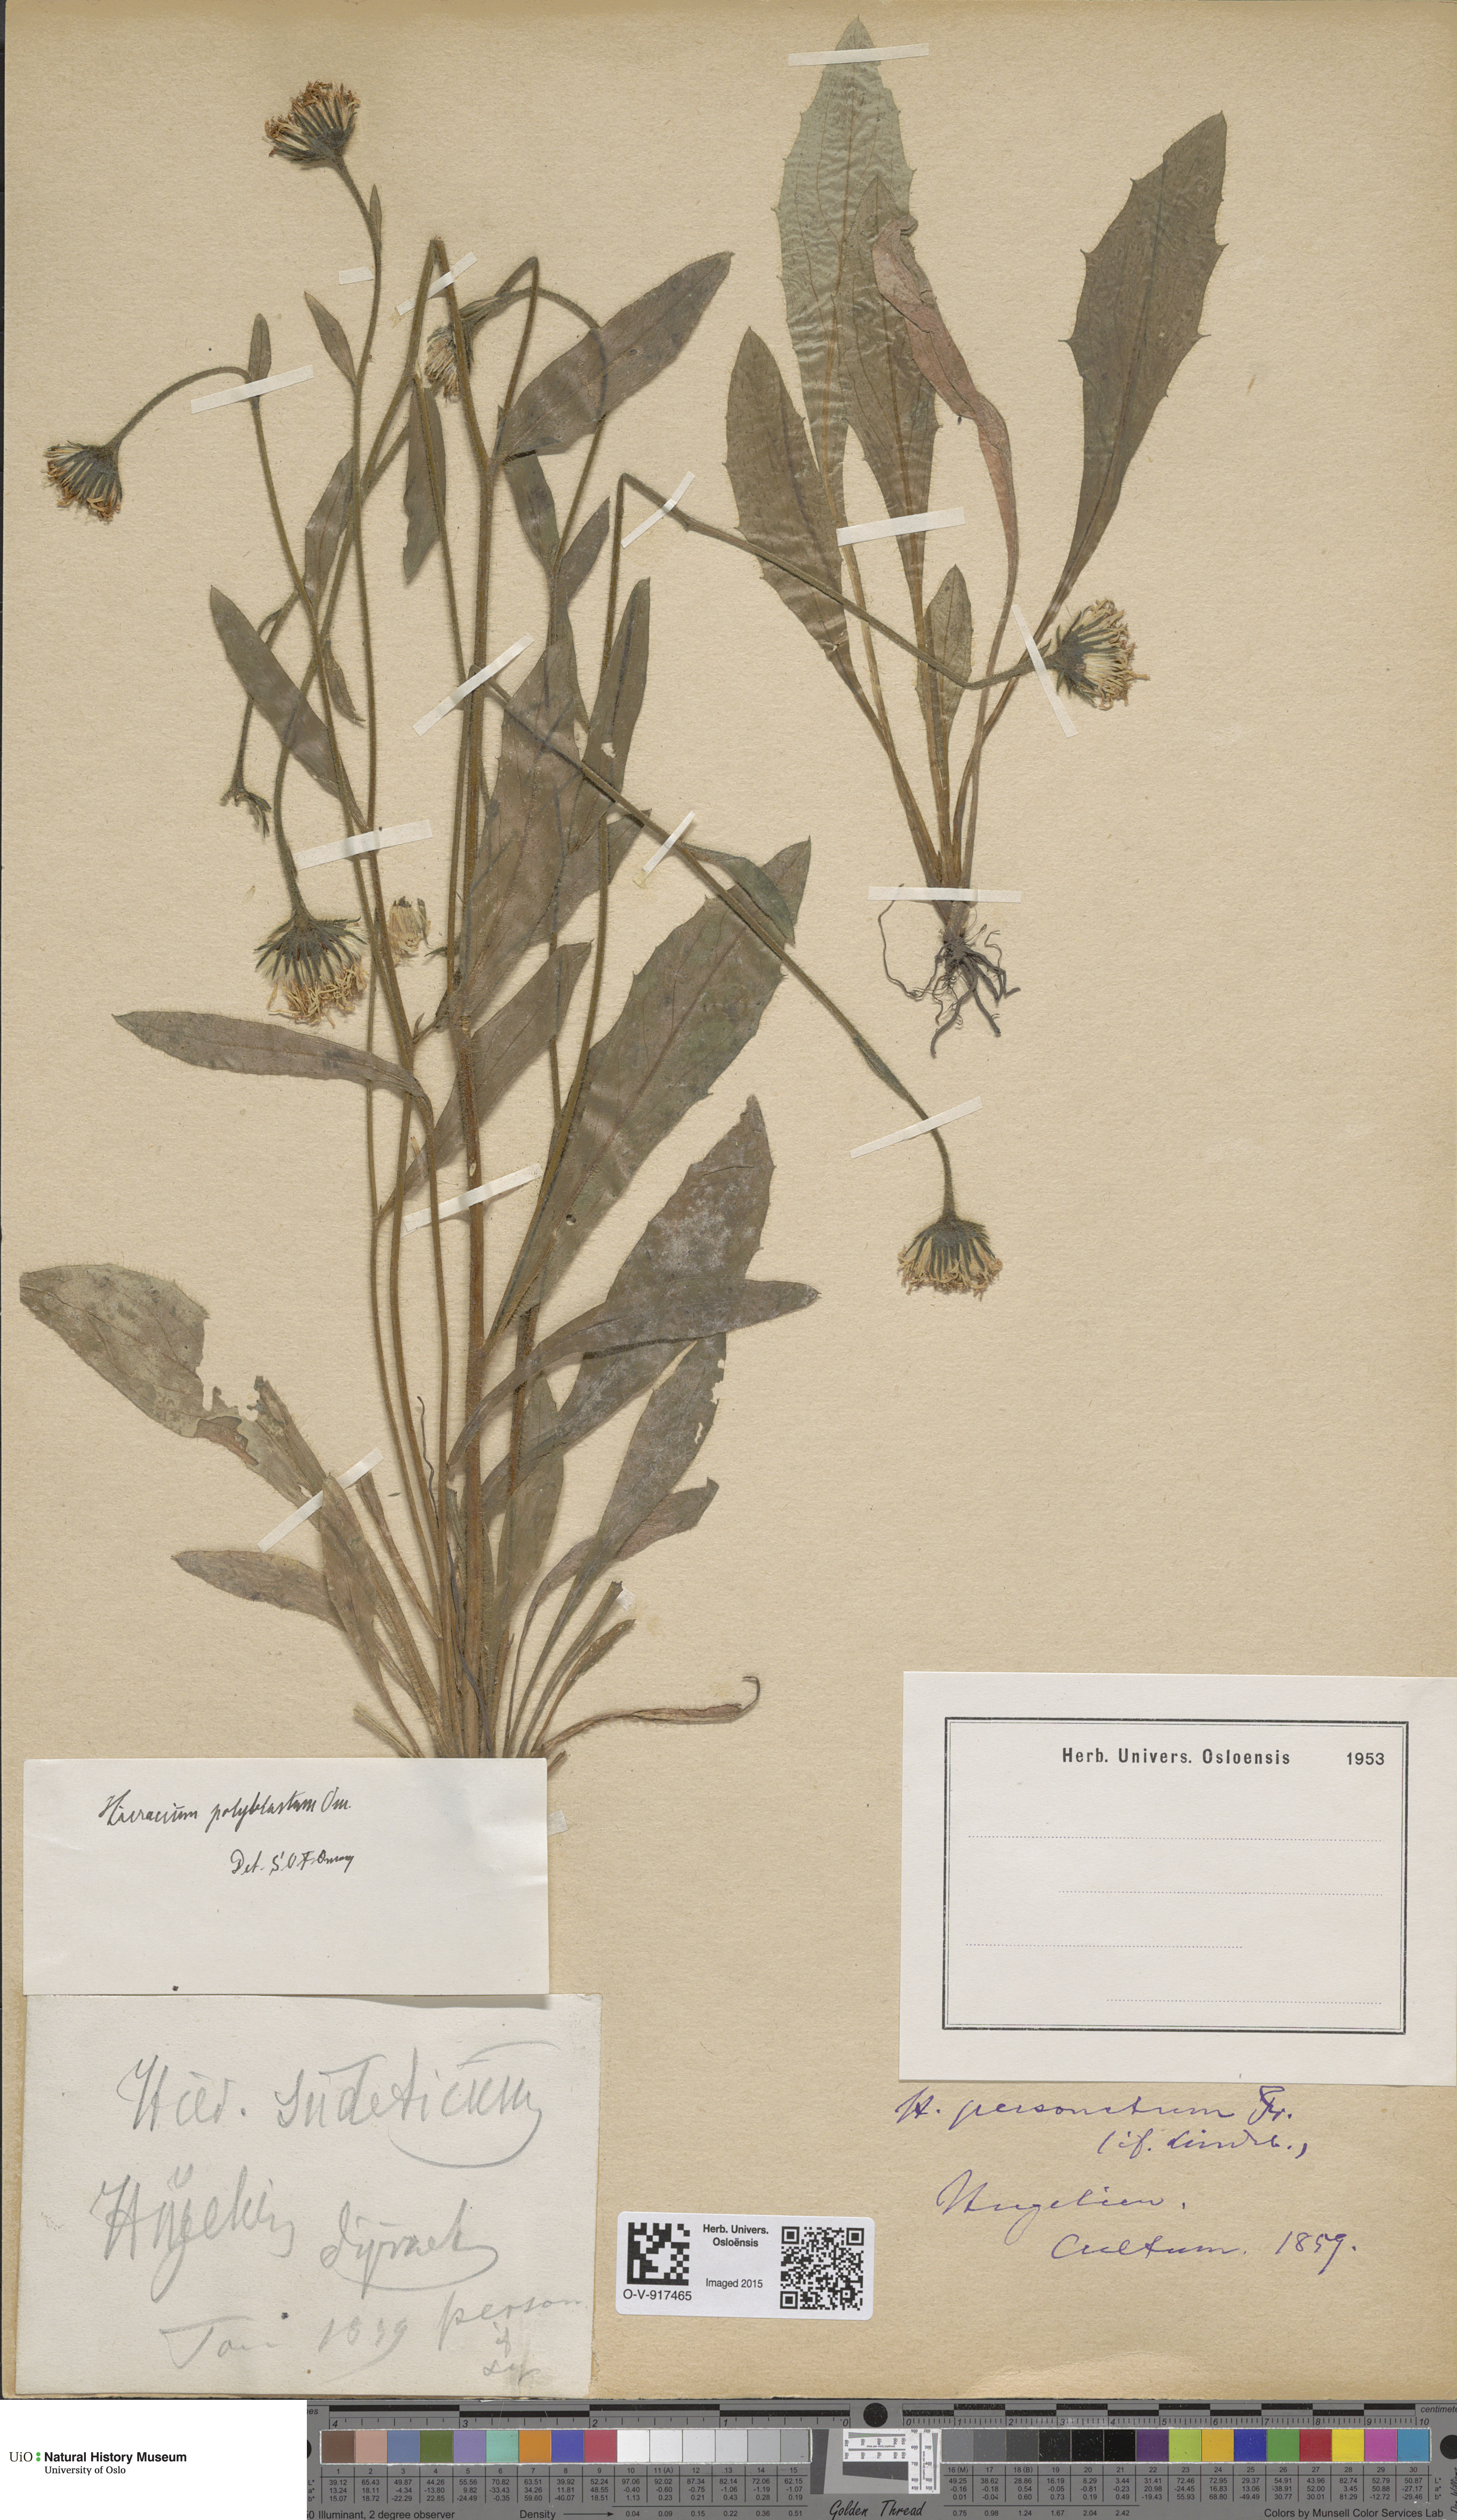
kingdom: Plantae
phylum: Tracheophyta
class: Magnoliopsida
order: Asterales
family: Asteraceae
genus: Hieracium
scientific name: Hieracium
